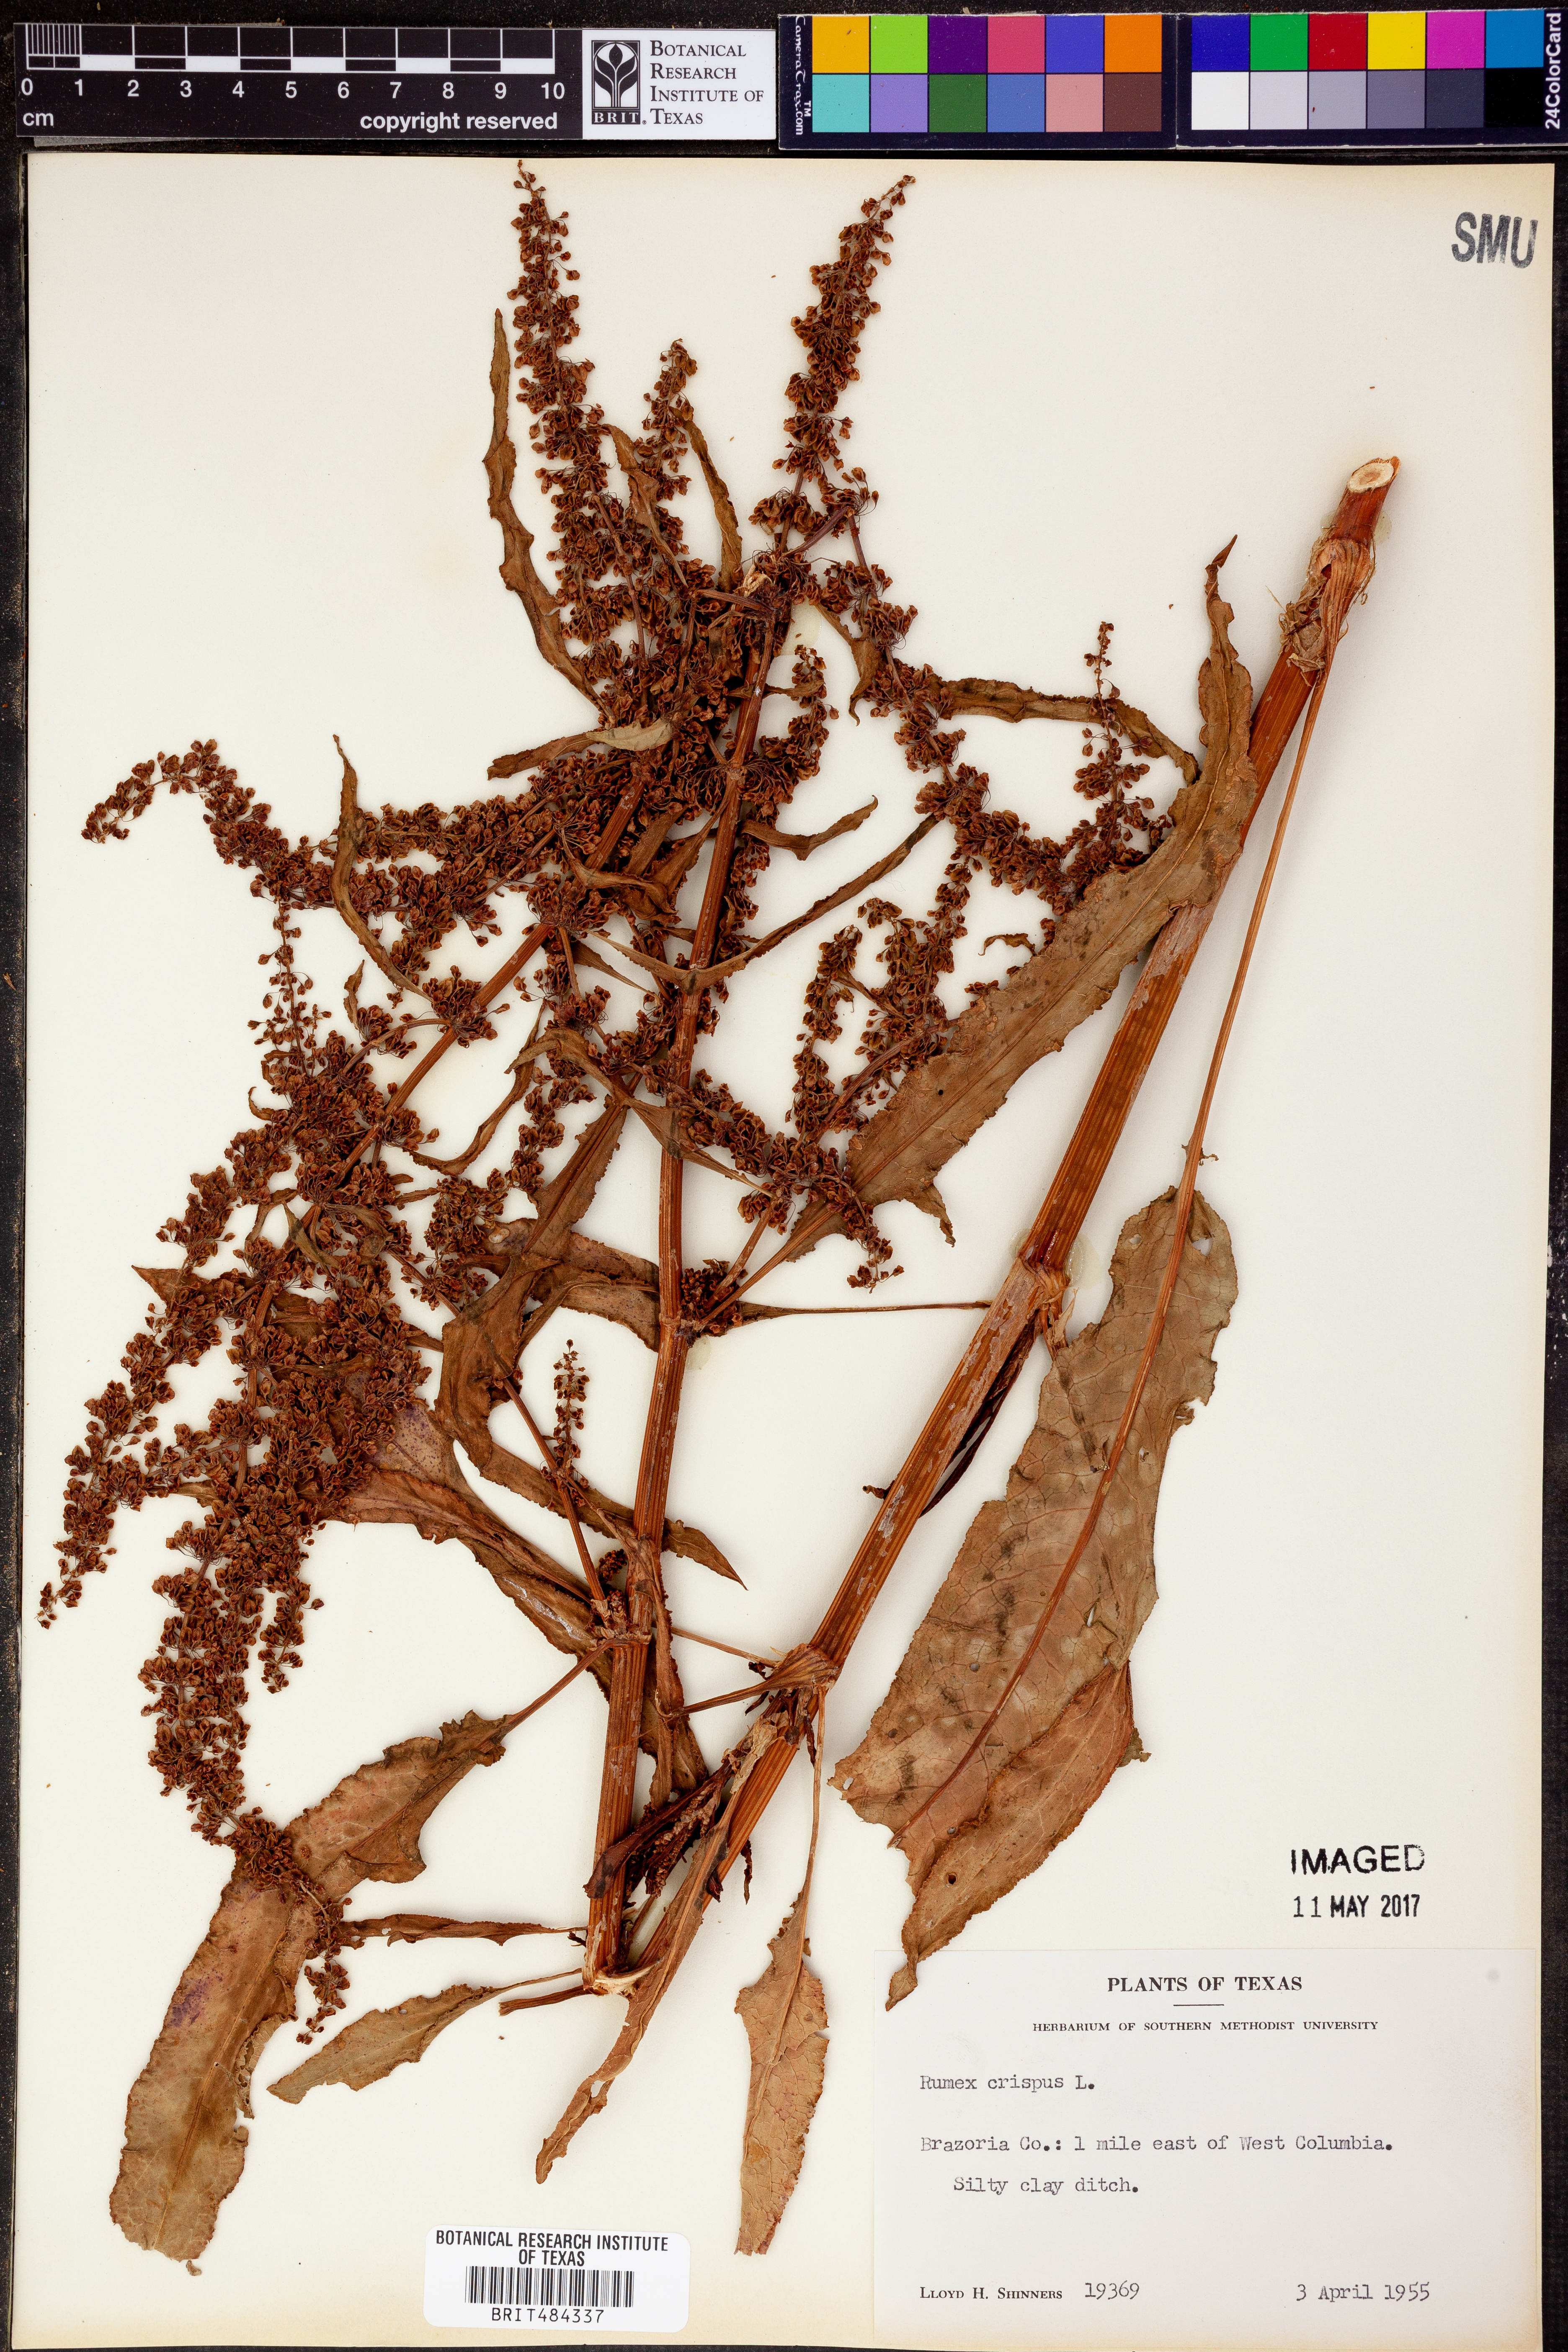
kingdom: Plantae
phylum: Tracheophyta
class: Magnoliopsida
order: Caryophyllales
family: Polygonaceae
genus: Rumex
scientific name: Rumex crispus
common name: Curled dock
